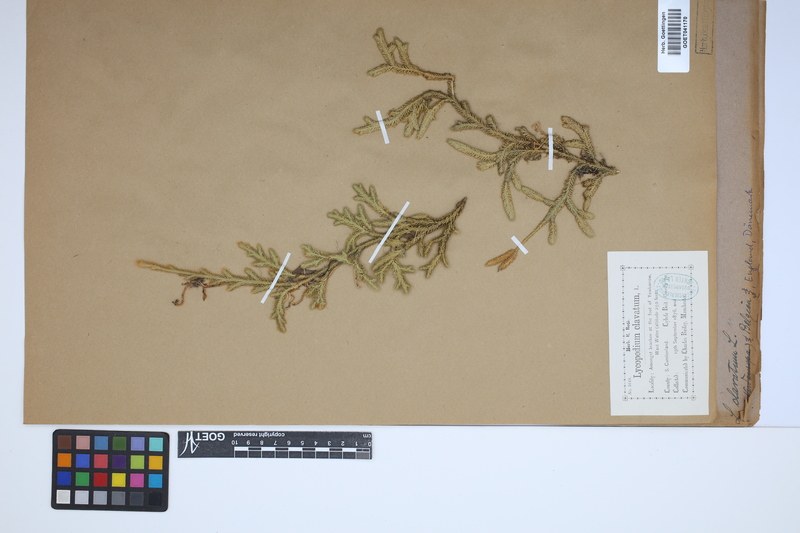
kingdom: Plantae
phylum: Tracheophyta
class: Lycopodiopsida
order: Lycopodiales
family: Lycopodiaceae
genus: Lycopodium
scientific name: Lycopodium clavatum
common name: Stag's-horn clubmoss
